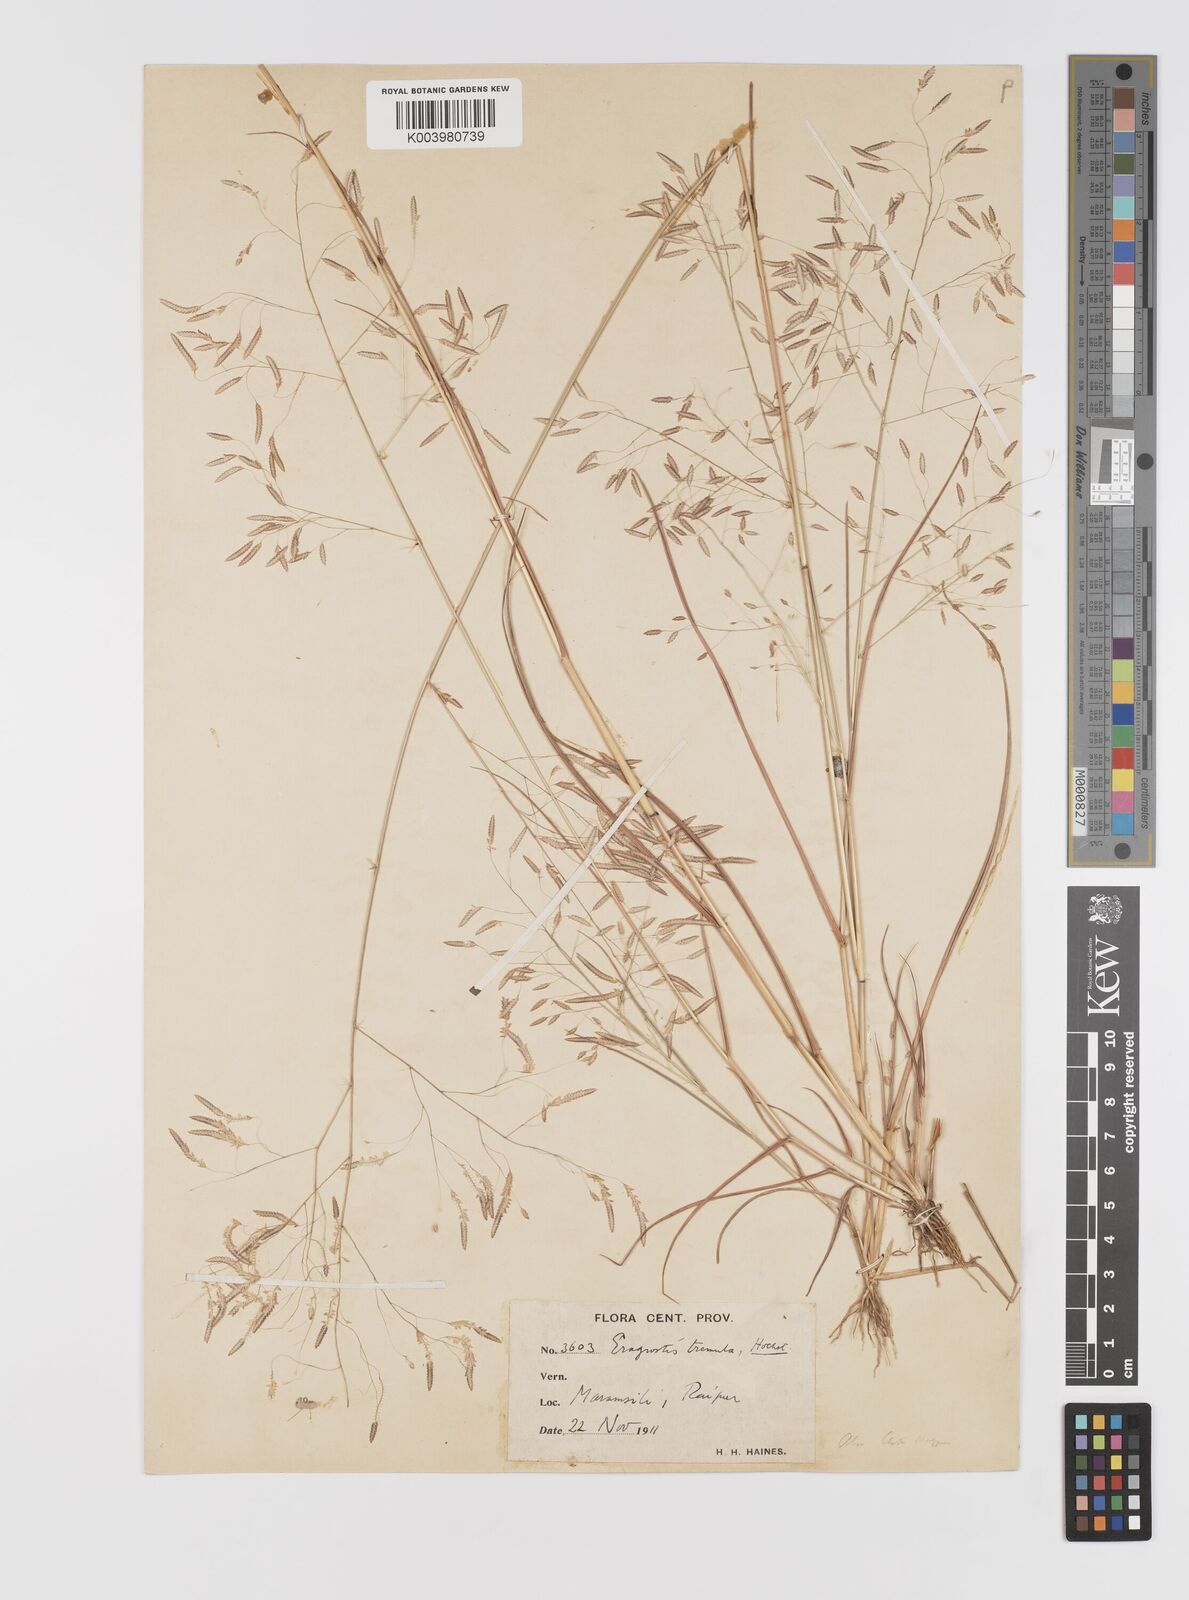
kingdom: Plantae
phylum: Tracheophyta
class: Liliopsida
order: Poales
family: Poaceae
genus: Eragrostis
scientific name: Eragrostis tremula
